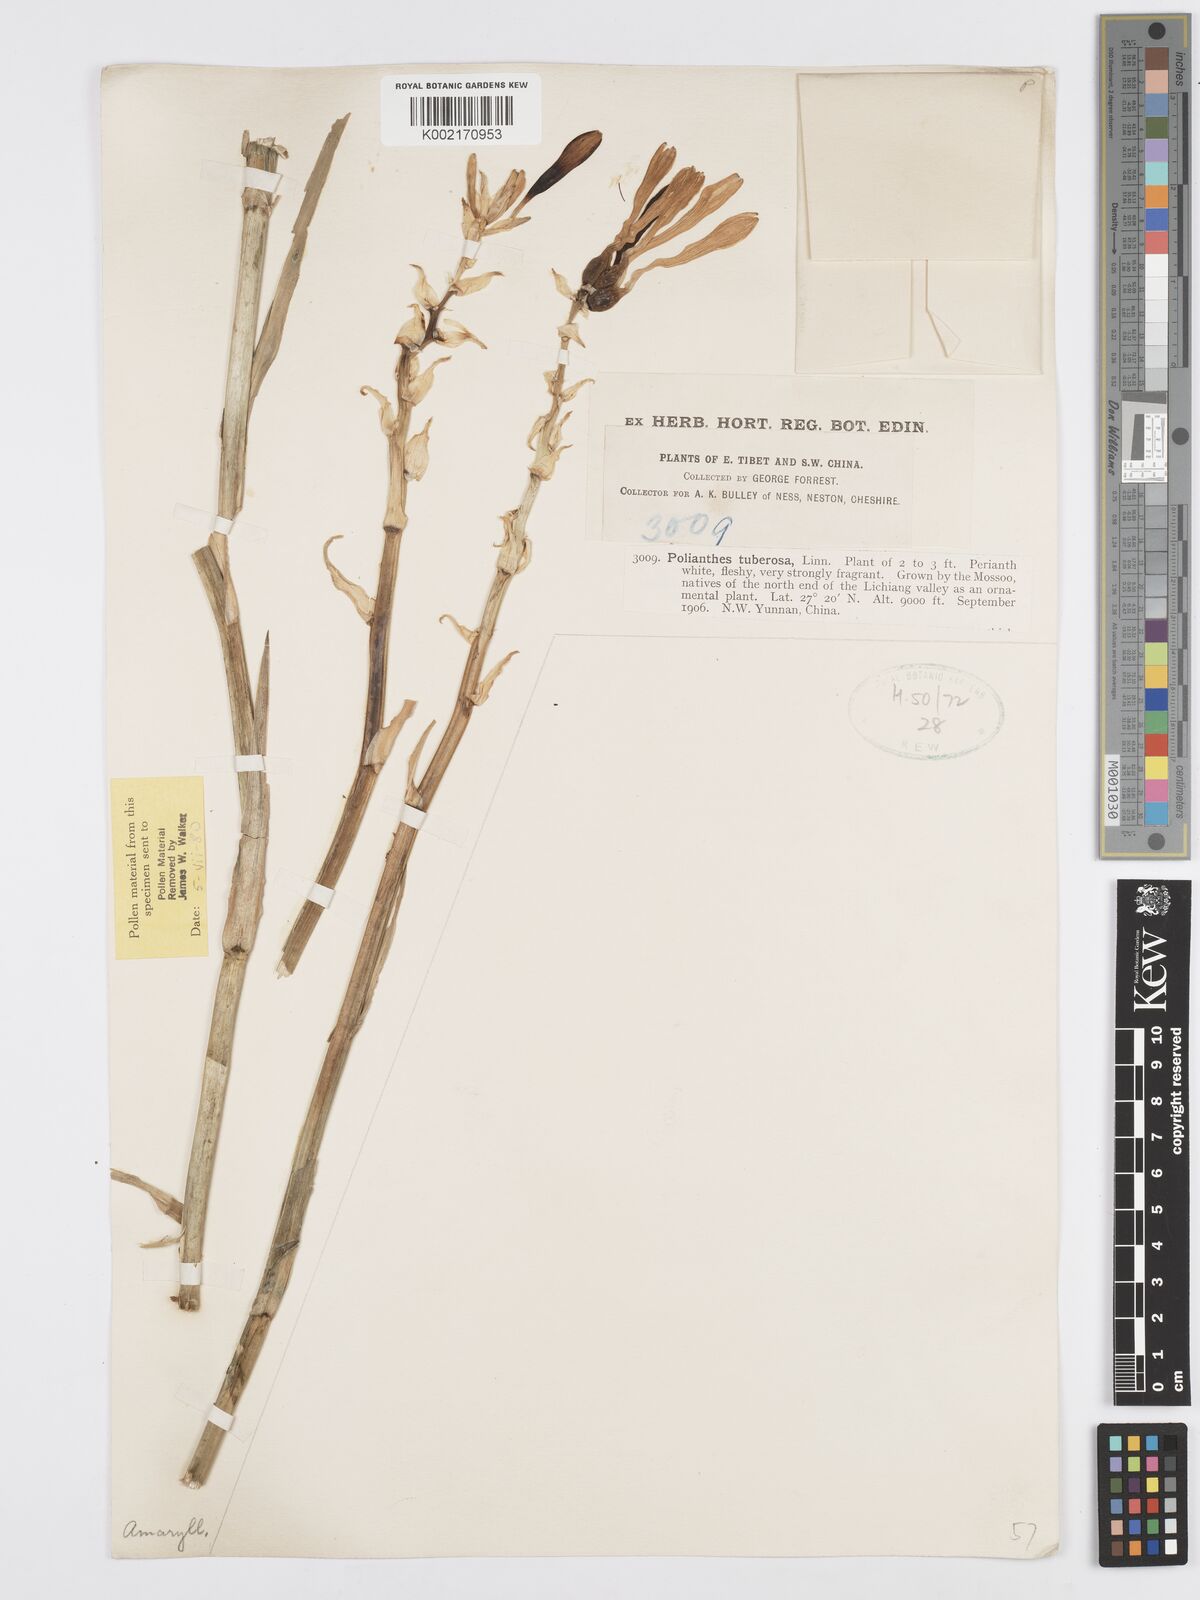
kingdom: Plantae
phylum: Tracheophyta
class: Liliopsida
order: Asparagales
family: Asparagaceae
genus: Agave
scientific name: Agave amica
